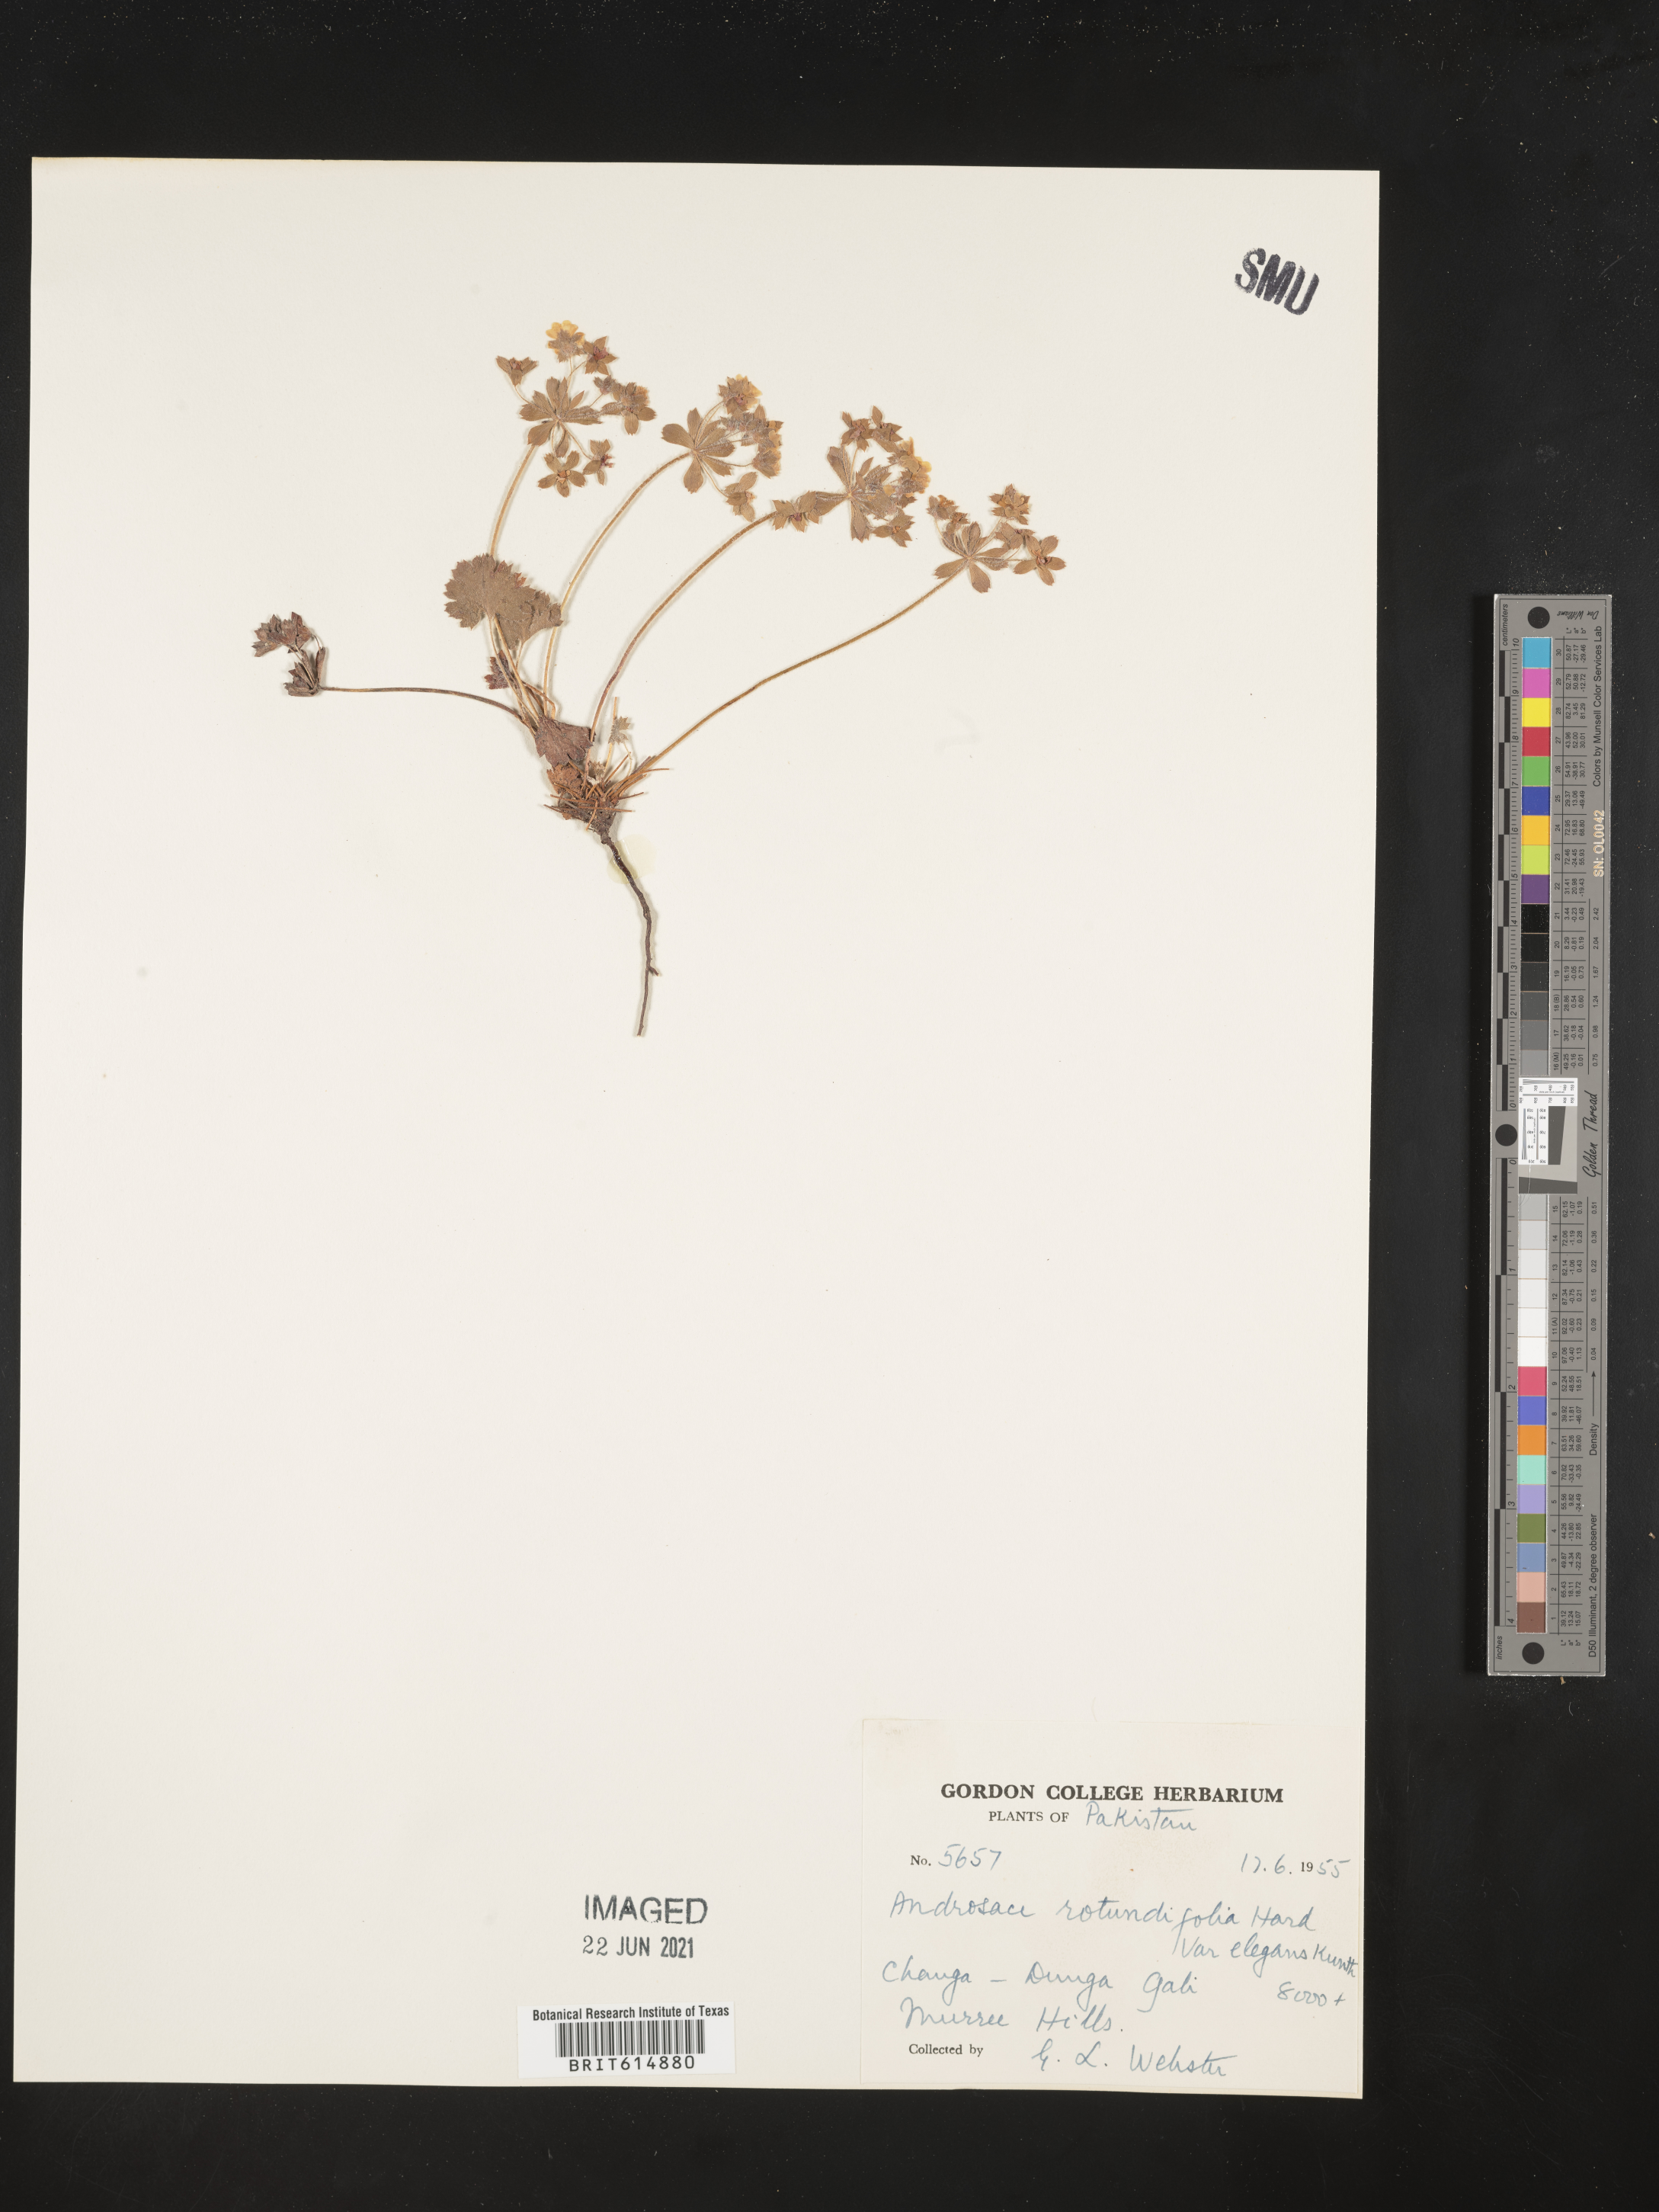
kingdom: Plantae
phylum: Tracheophyta
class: Magnoliopsida
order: Ericales
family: Primulaceae
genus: Androsace
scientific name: Androsace rotundifolia
